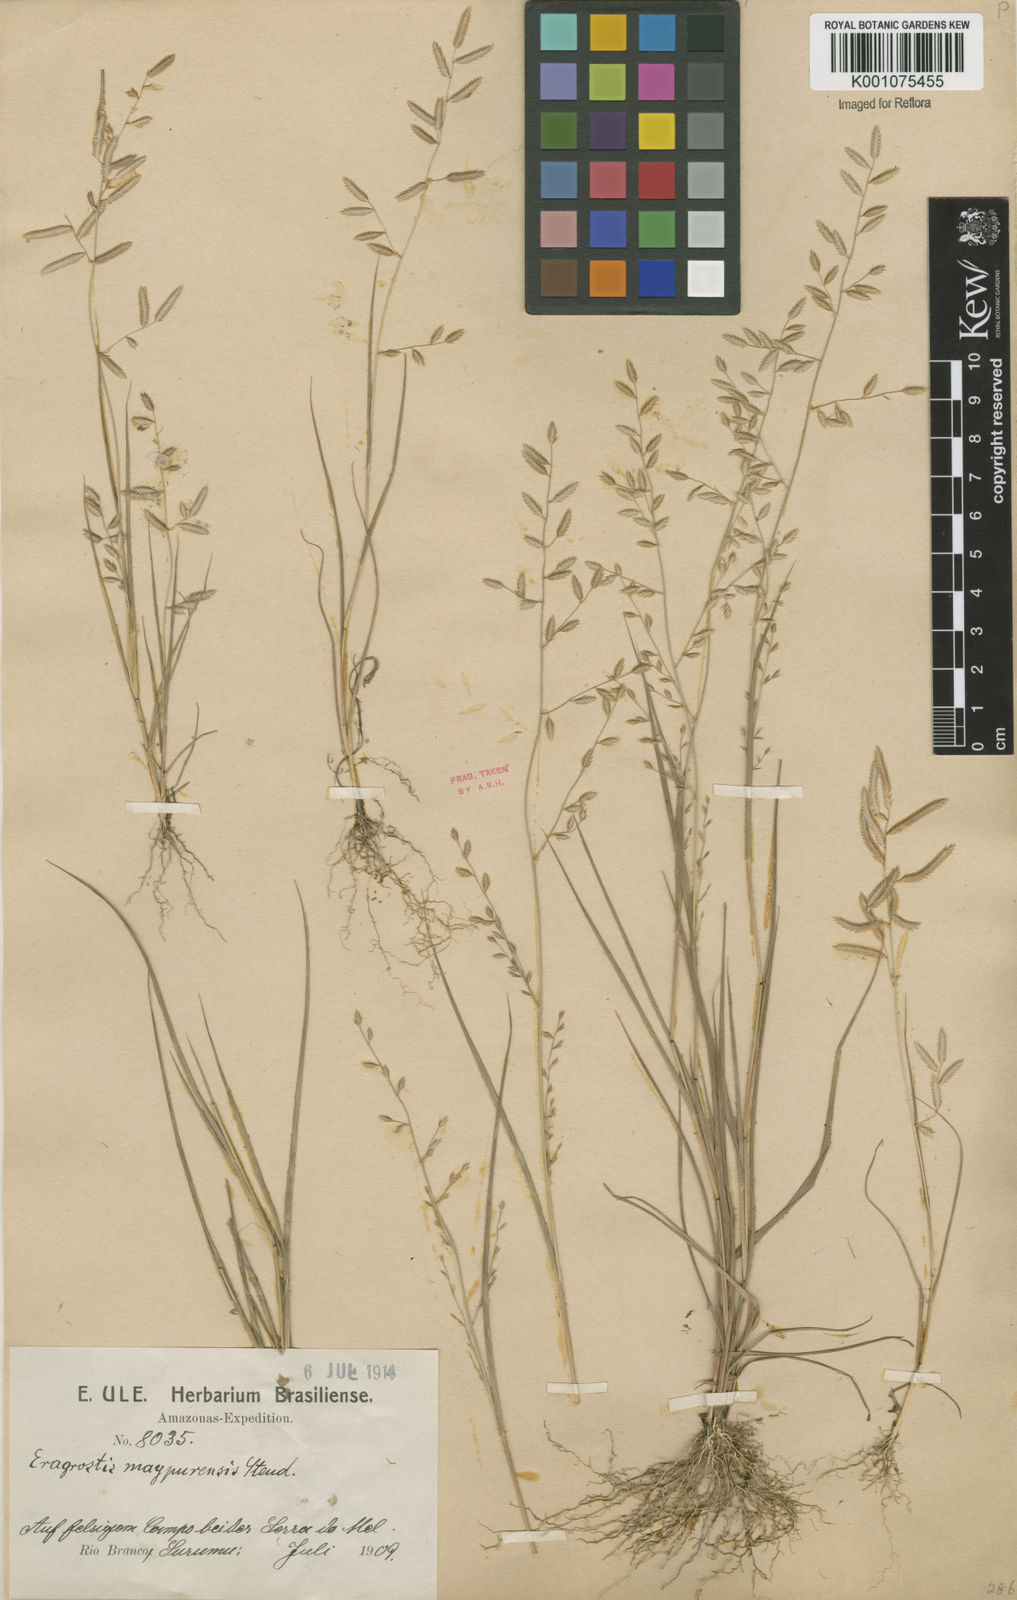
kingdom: Plantae
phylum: Tracheophyta
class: Liliopsida
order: Poales
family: Poaceae
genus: Eragrostis
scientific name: Eragrostis maypurensis
